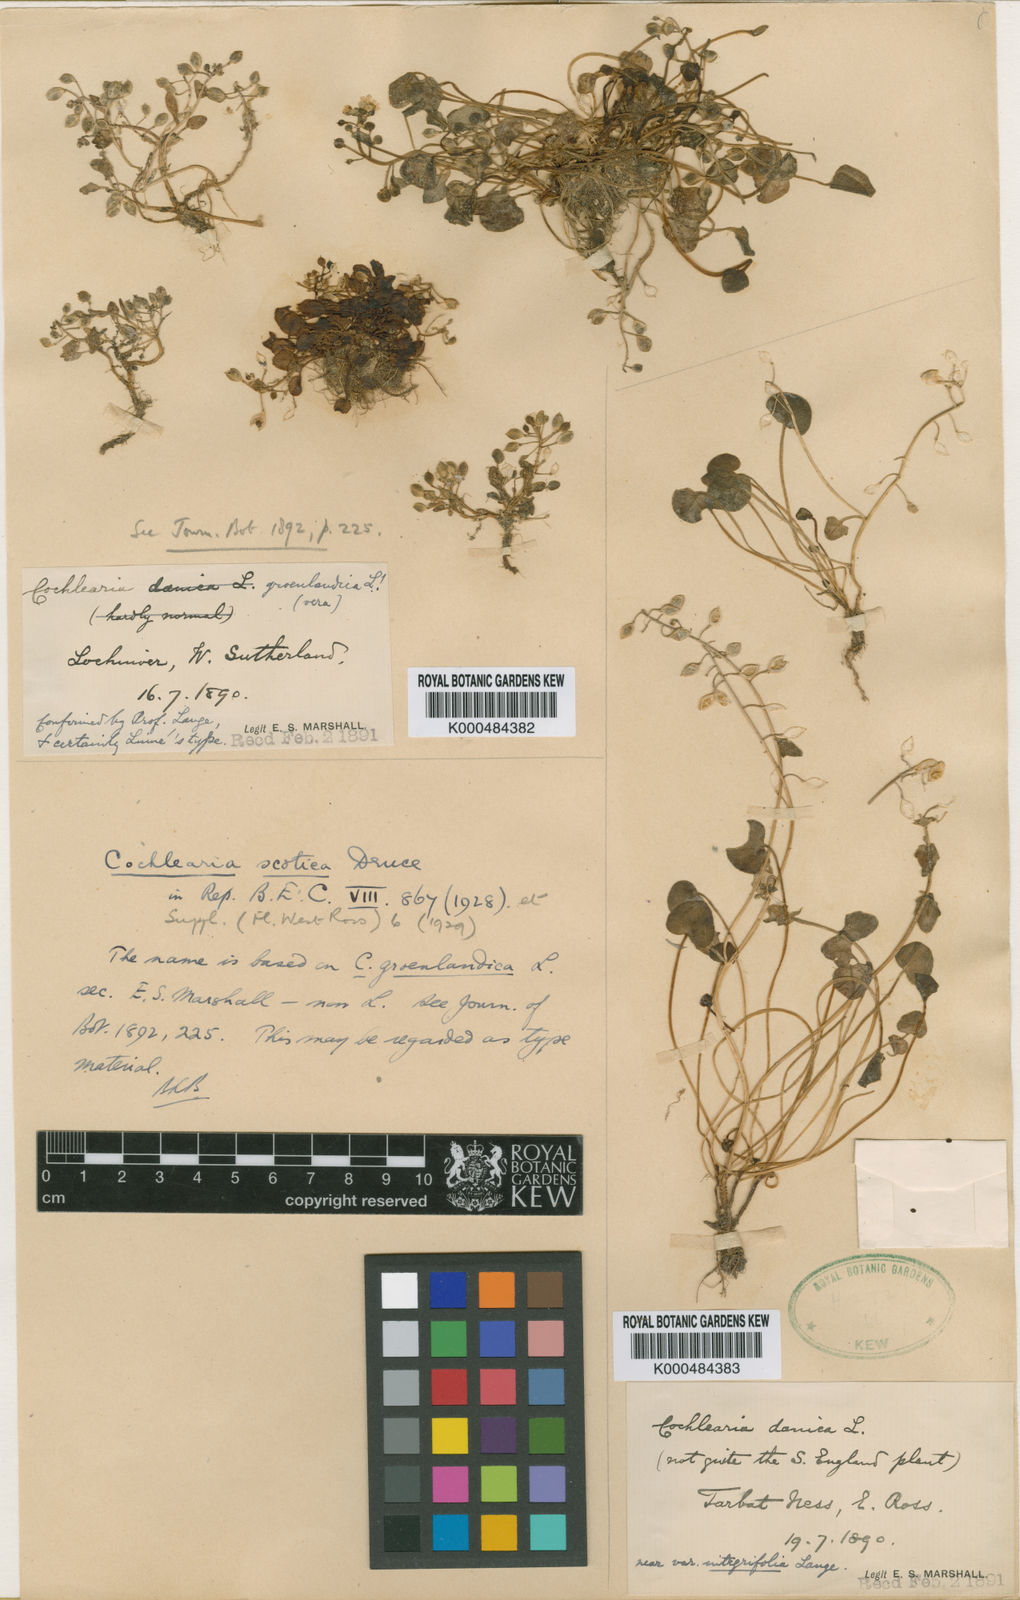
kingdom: Plantae
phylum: Tracheophyta
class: Magnoliopsida
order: Brassicales
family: Brassicaceae
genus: Cochlearia
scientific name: Cochlearia scotica
